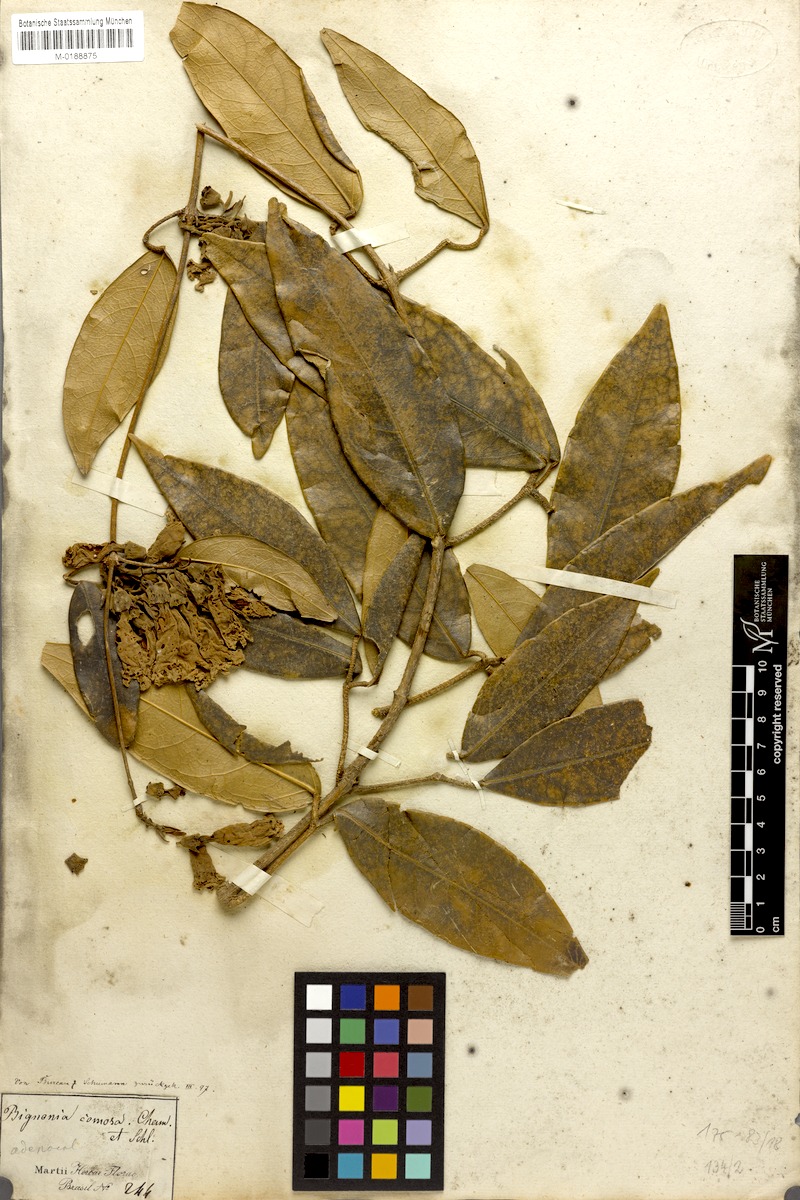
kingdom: Plantae
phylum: Tracheophyta
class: Magnoliopsida
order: Lamiales
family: Bignoniaceae
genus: Adenocalymma
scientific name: Adenocalymma acutissimum
